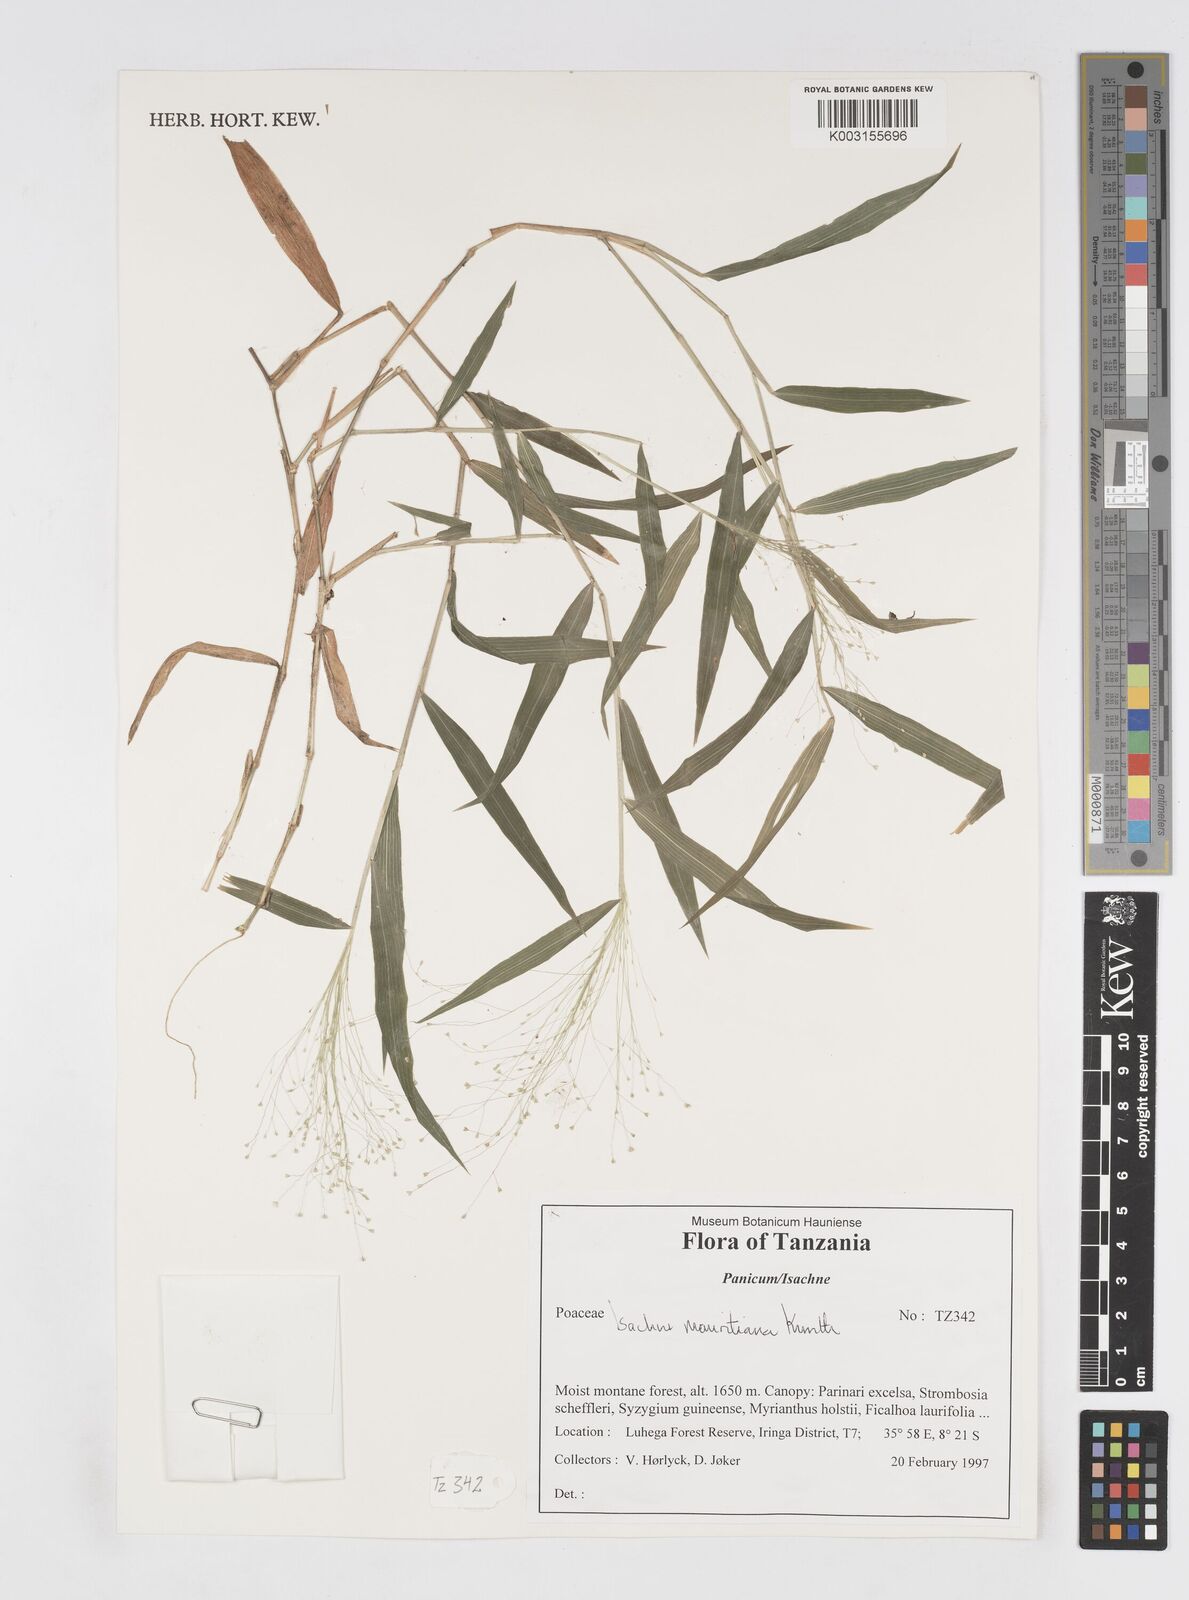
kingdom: Plantae
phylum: Tracheophyta
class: Liliopsida
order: Poales
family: Poaceae
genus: Isachne
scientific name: Isachne mauritiana
